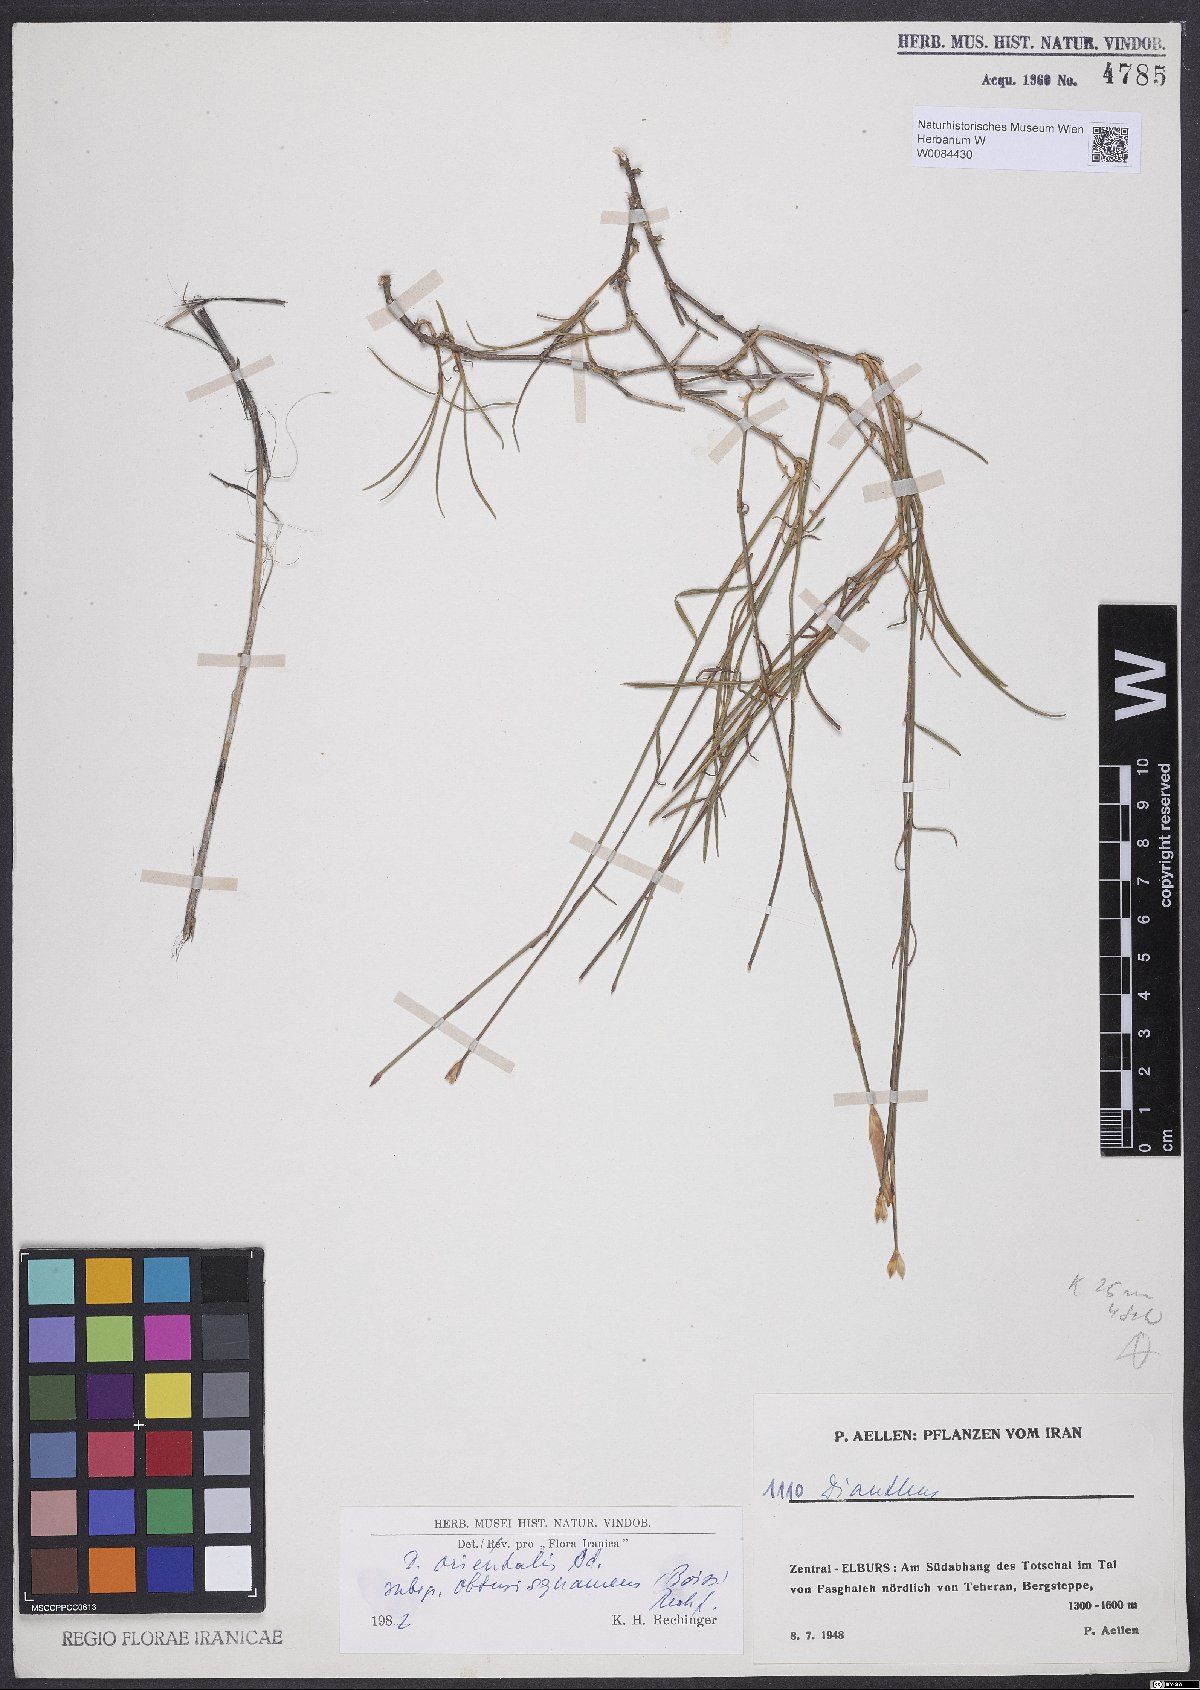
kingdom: Plantae
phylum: Tracheophyta
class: Magnoliopsida
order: Caryophyllales
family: Caryophyllaceae
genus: Dianthus
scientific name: Dianthus orientalis
